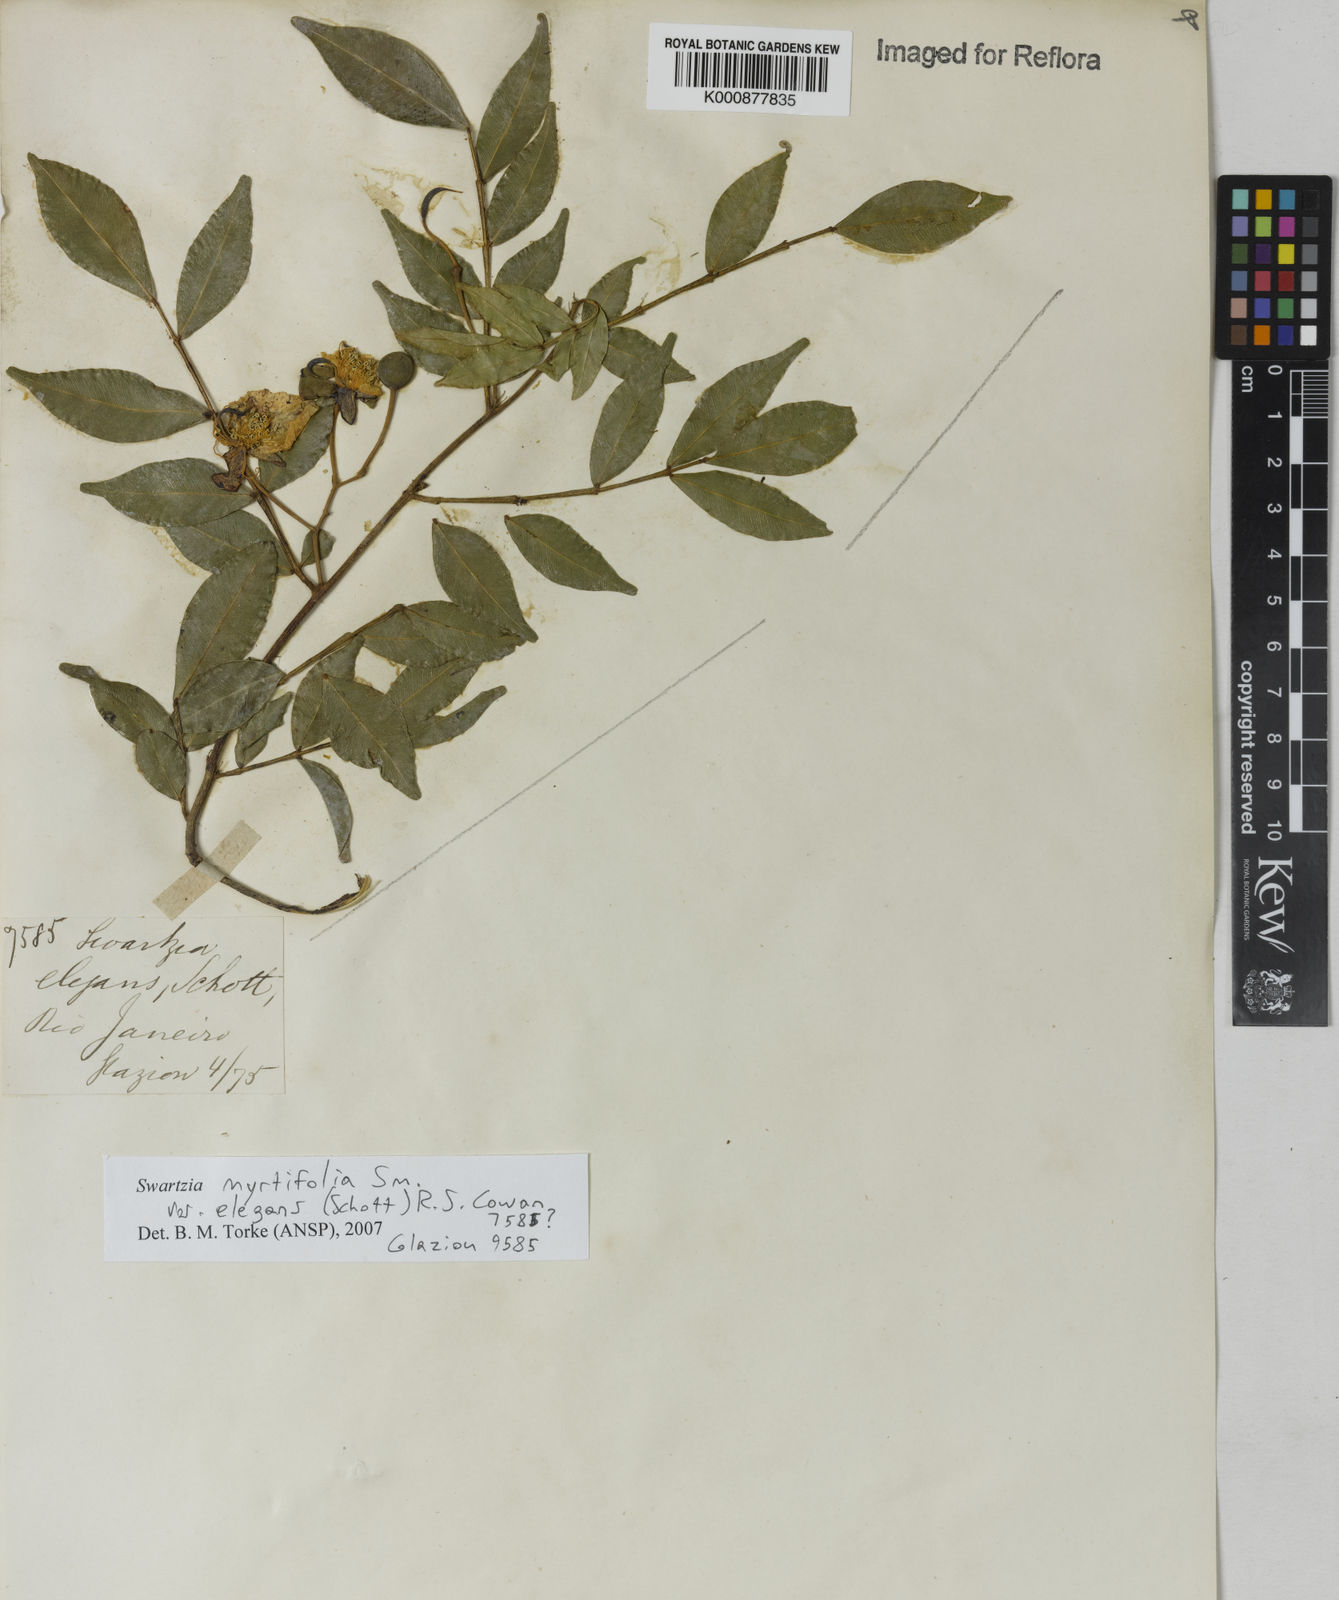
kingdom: Plantae
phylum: Tracheophyta
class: Magnoliopsida
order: Fabales
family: Fabaceae
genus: Swartzia
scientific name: Swartzia myrtifolia
